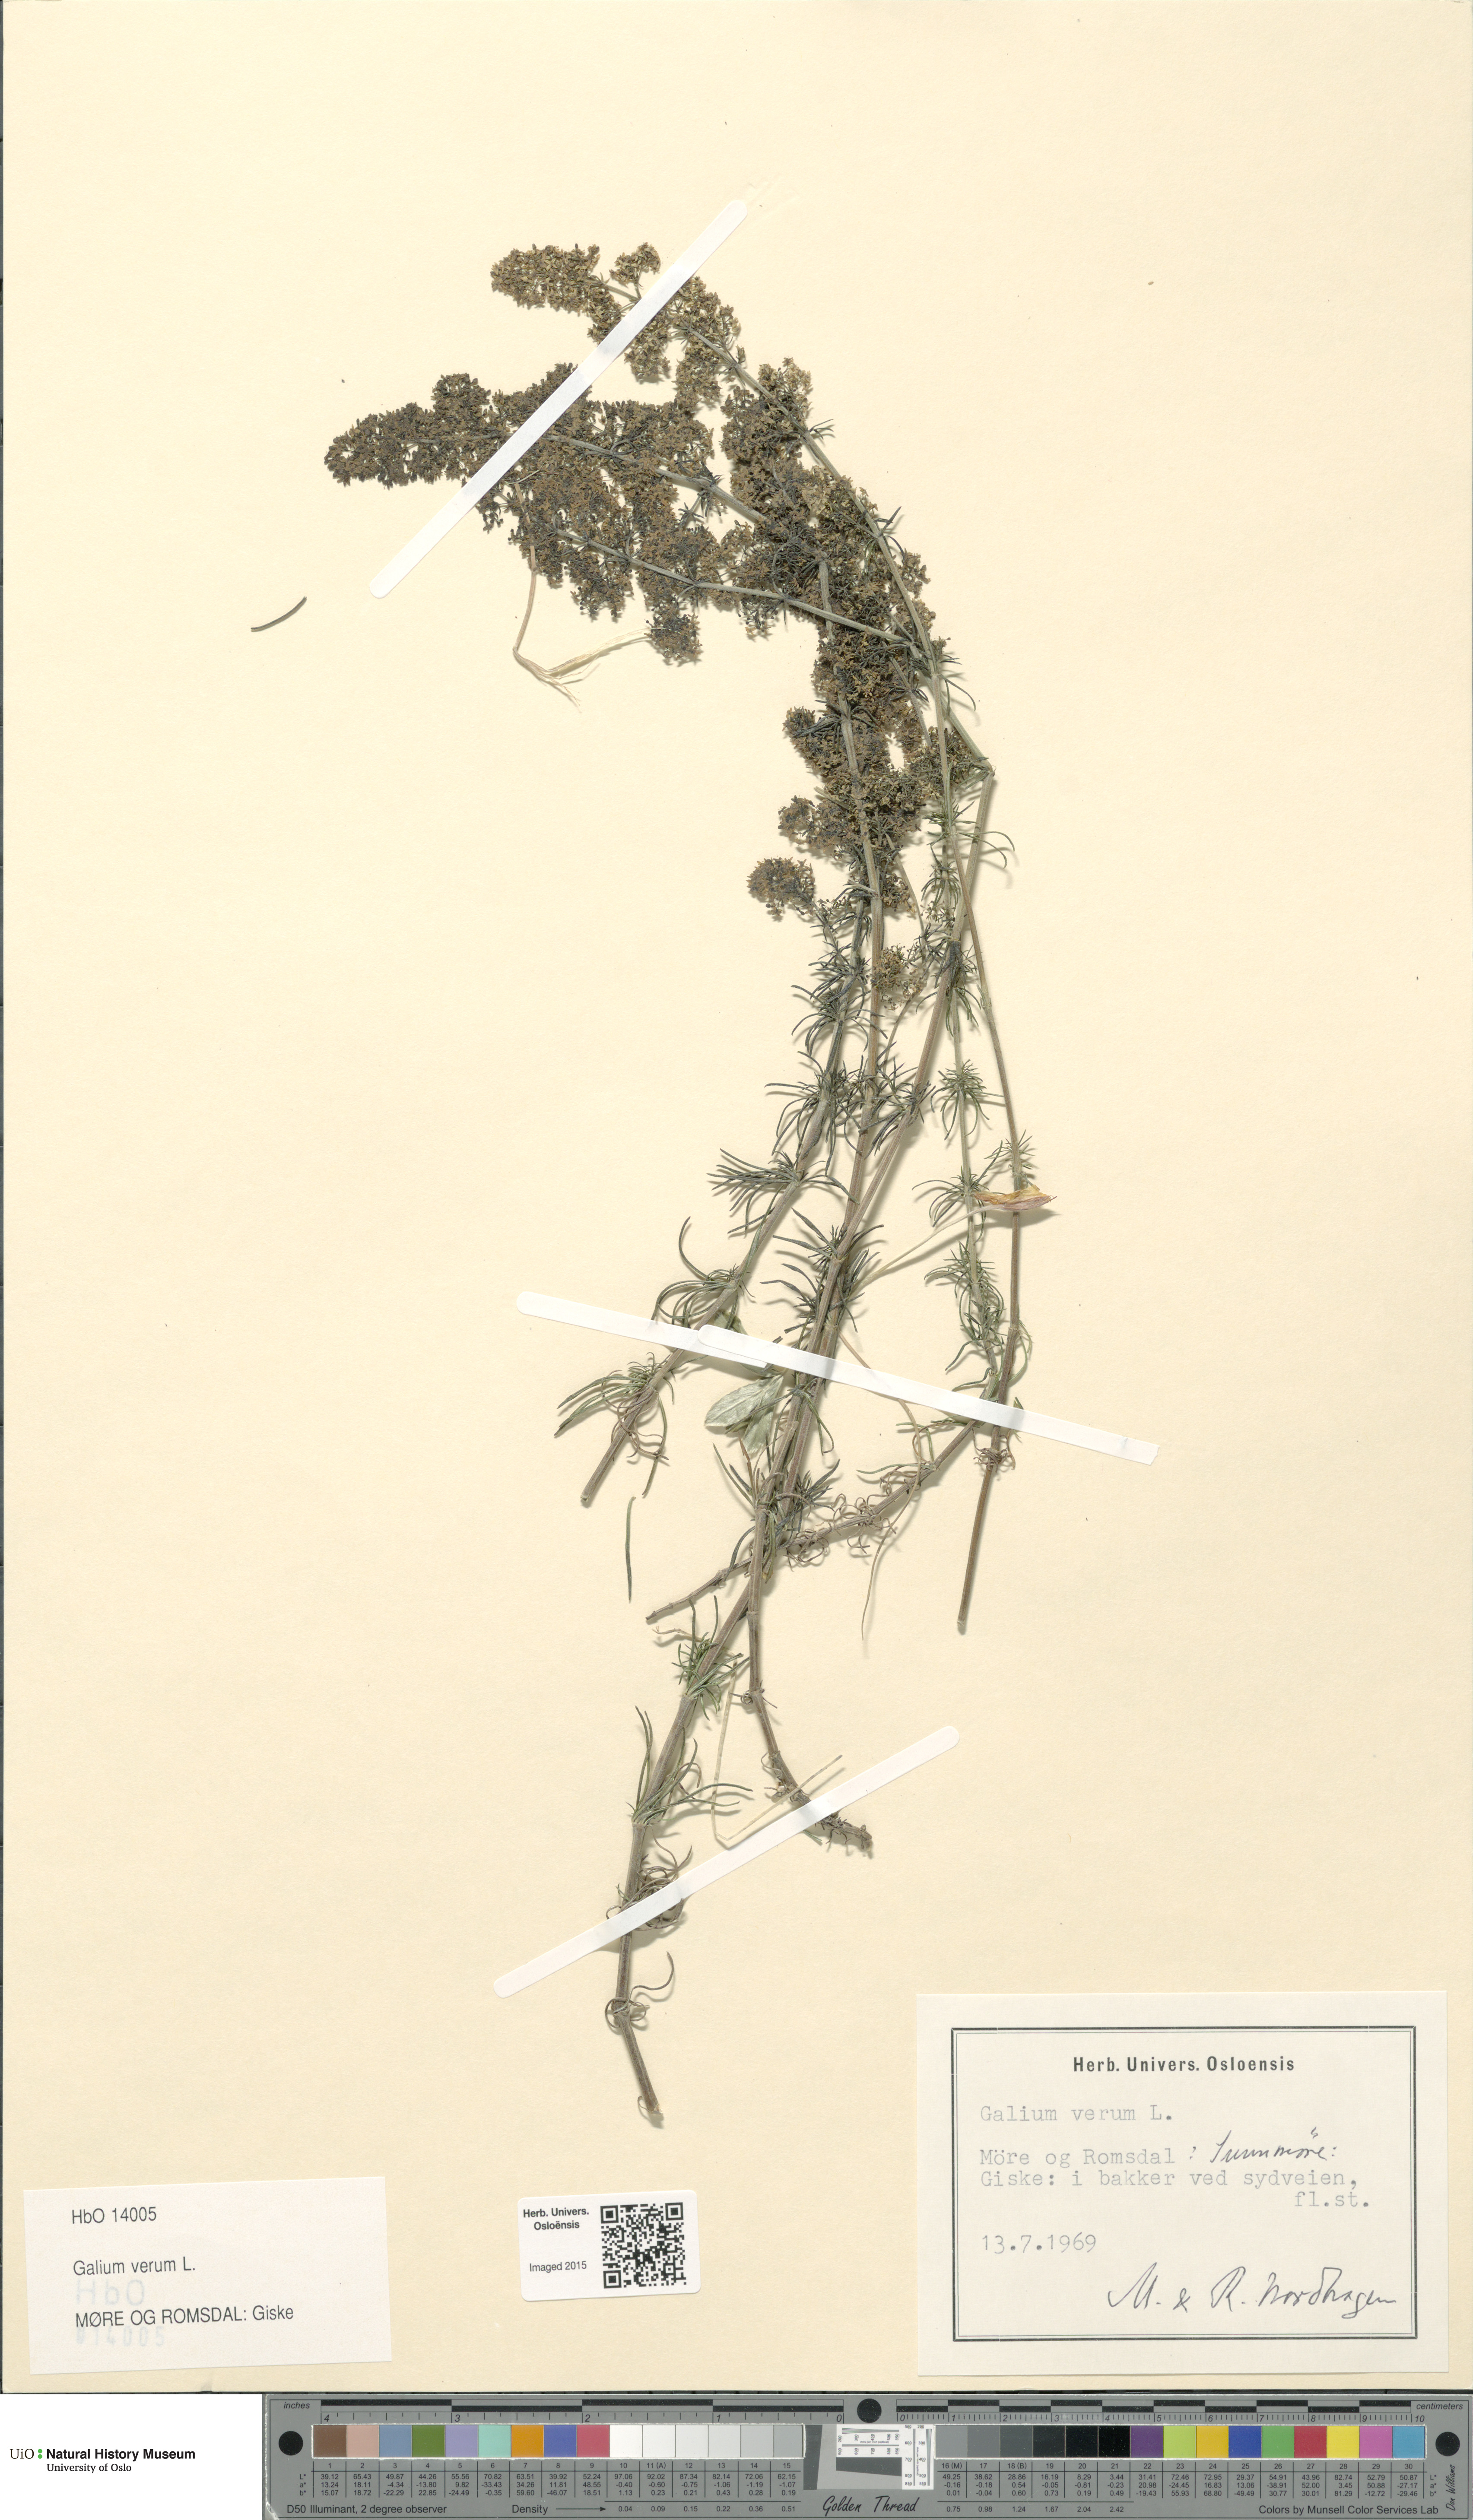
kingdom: Plantae
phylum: Tracheophyta
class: Magnoliopsida
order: Gentianales
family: Rubiaceae
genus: Galium
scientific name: Galium verum
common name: Lady's bedstraw
